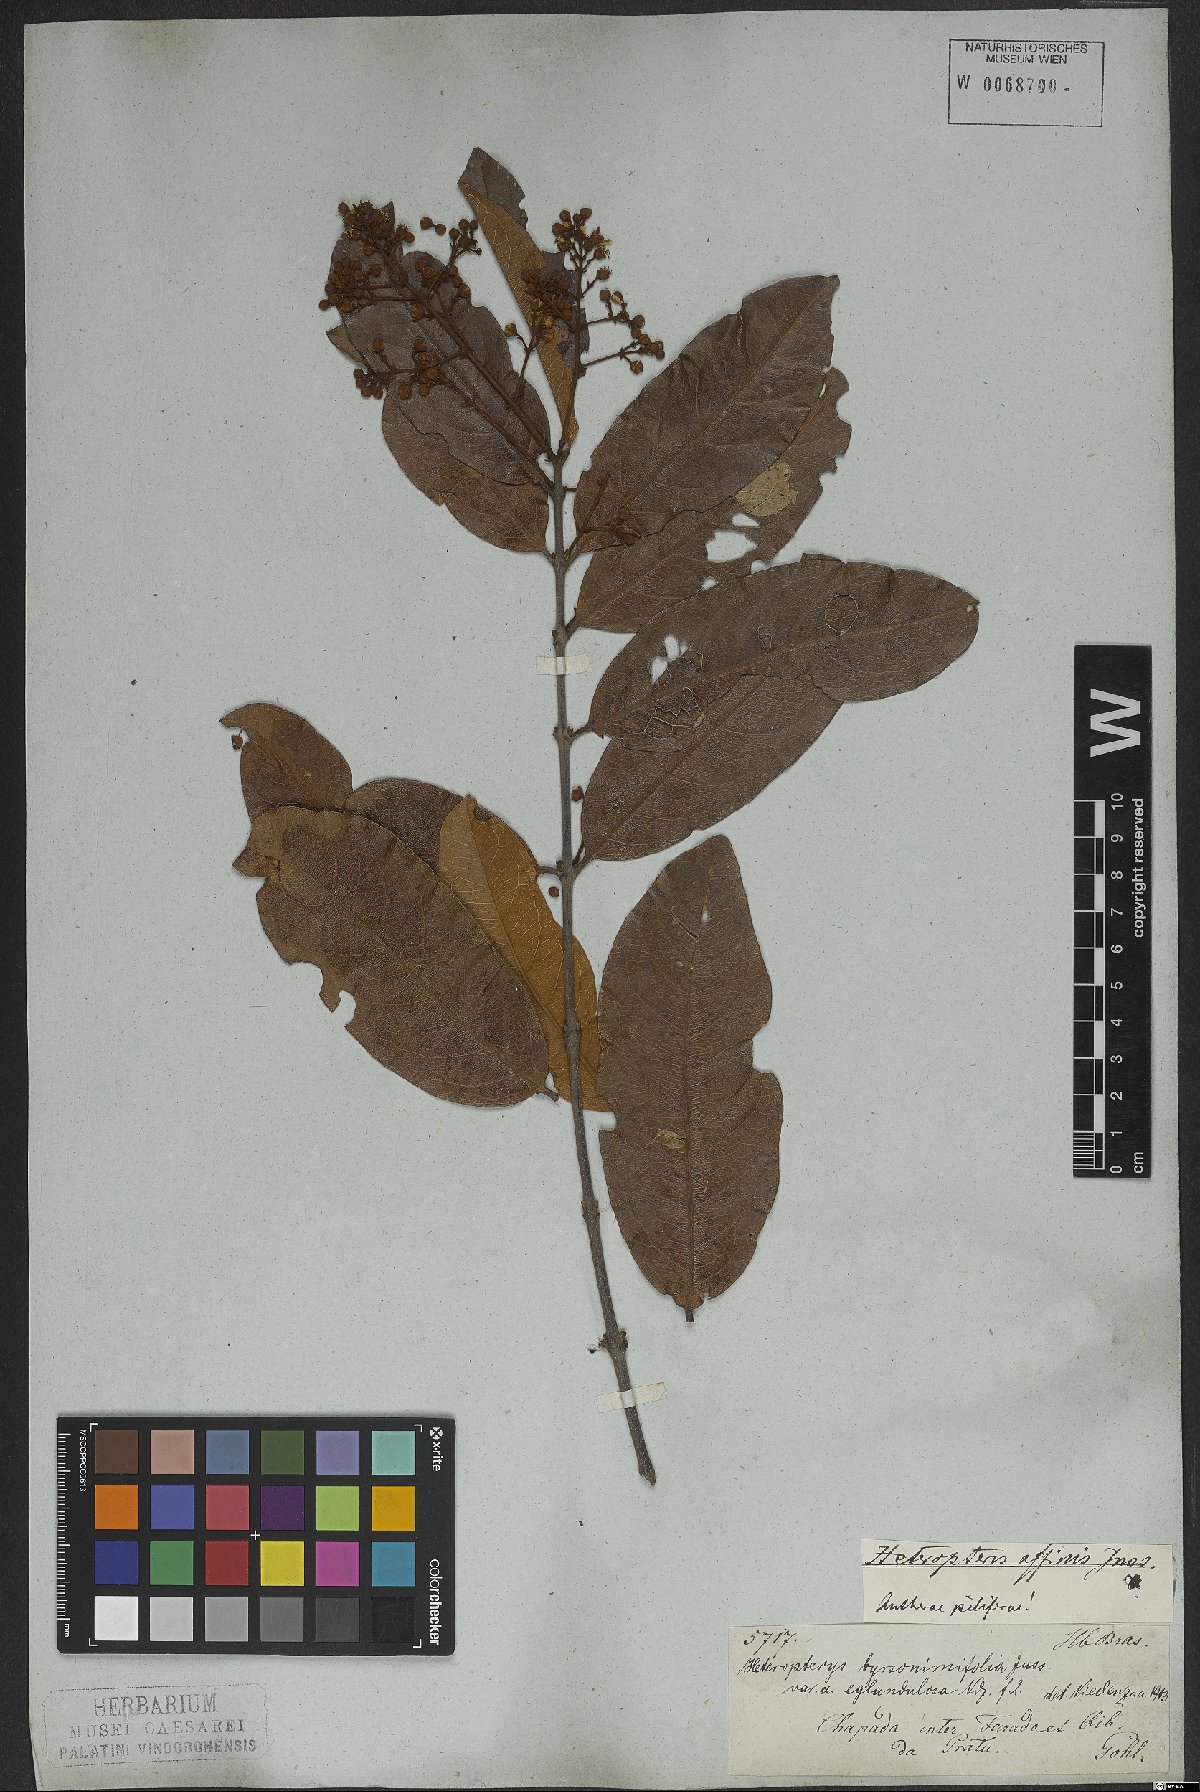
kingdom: Plantae
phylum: Tracheophyta
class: Magnoliopsida
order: Malpighiales
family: Malpighiaceae
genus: Heteropterys
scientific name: Heteropterys byrsonimifolia
